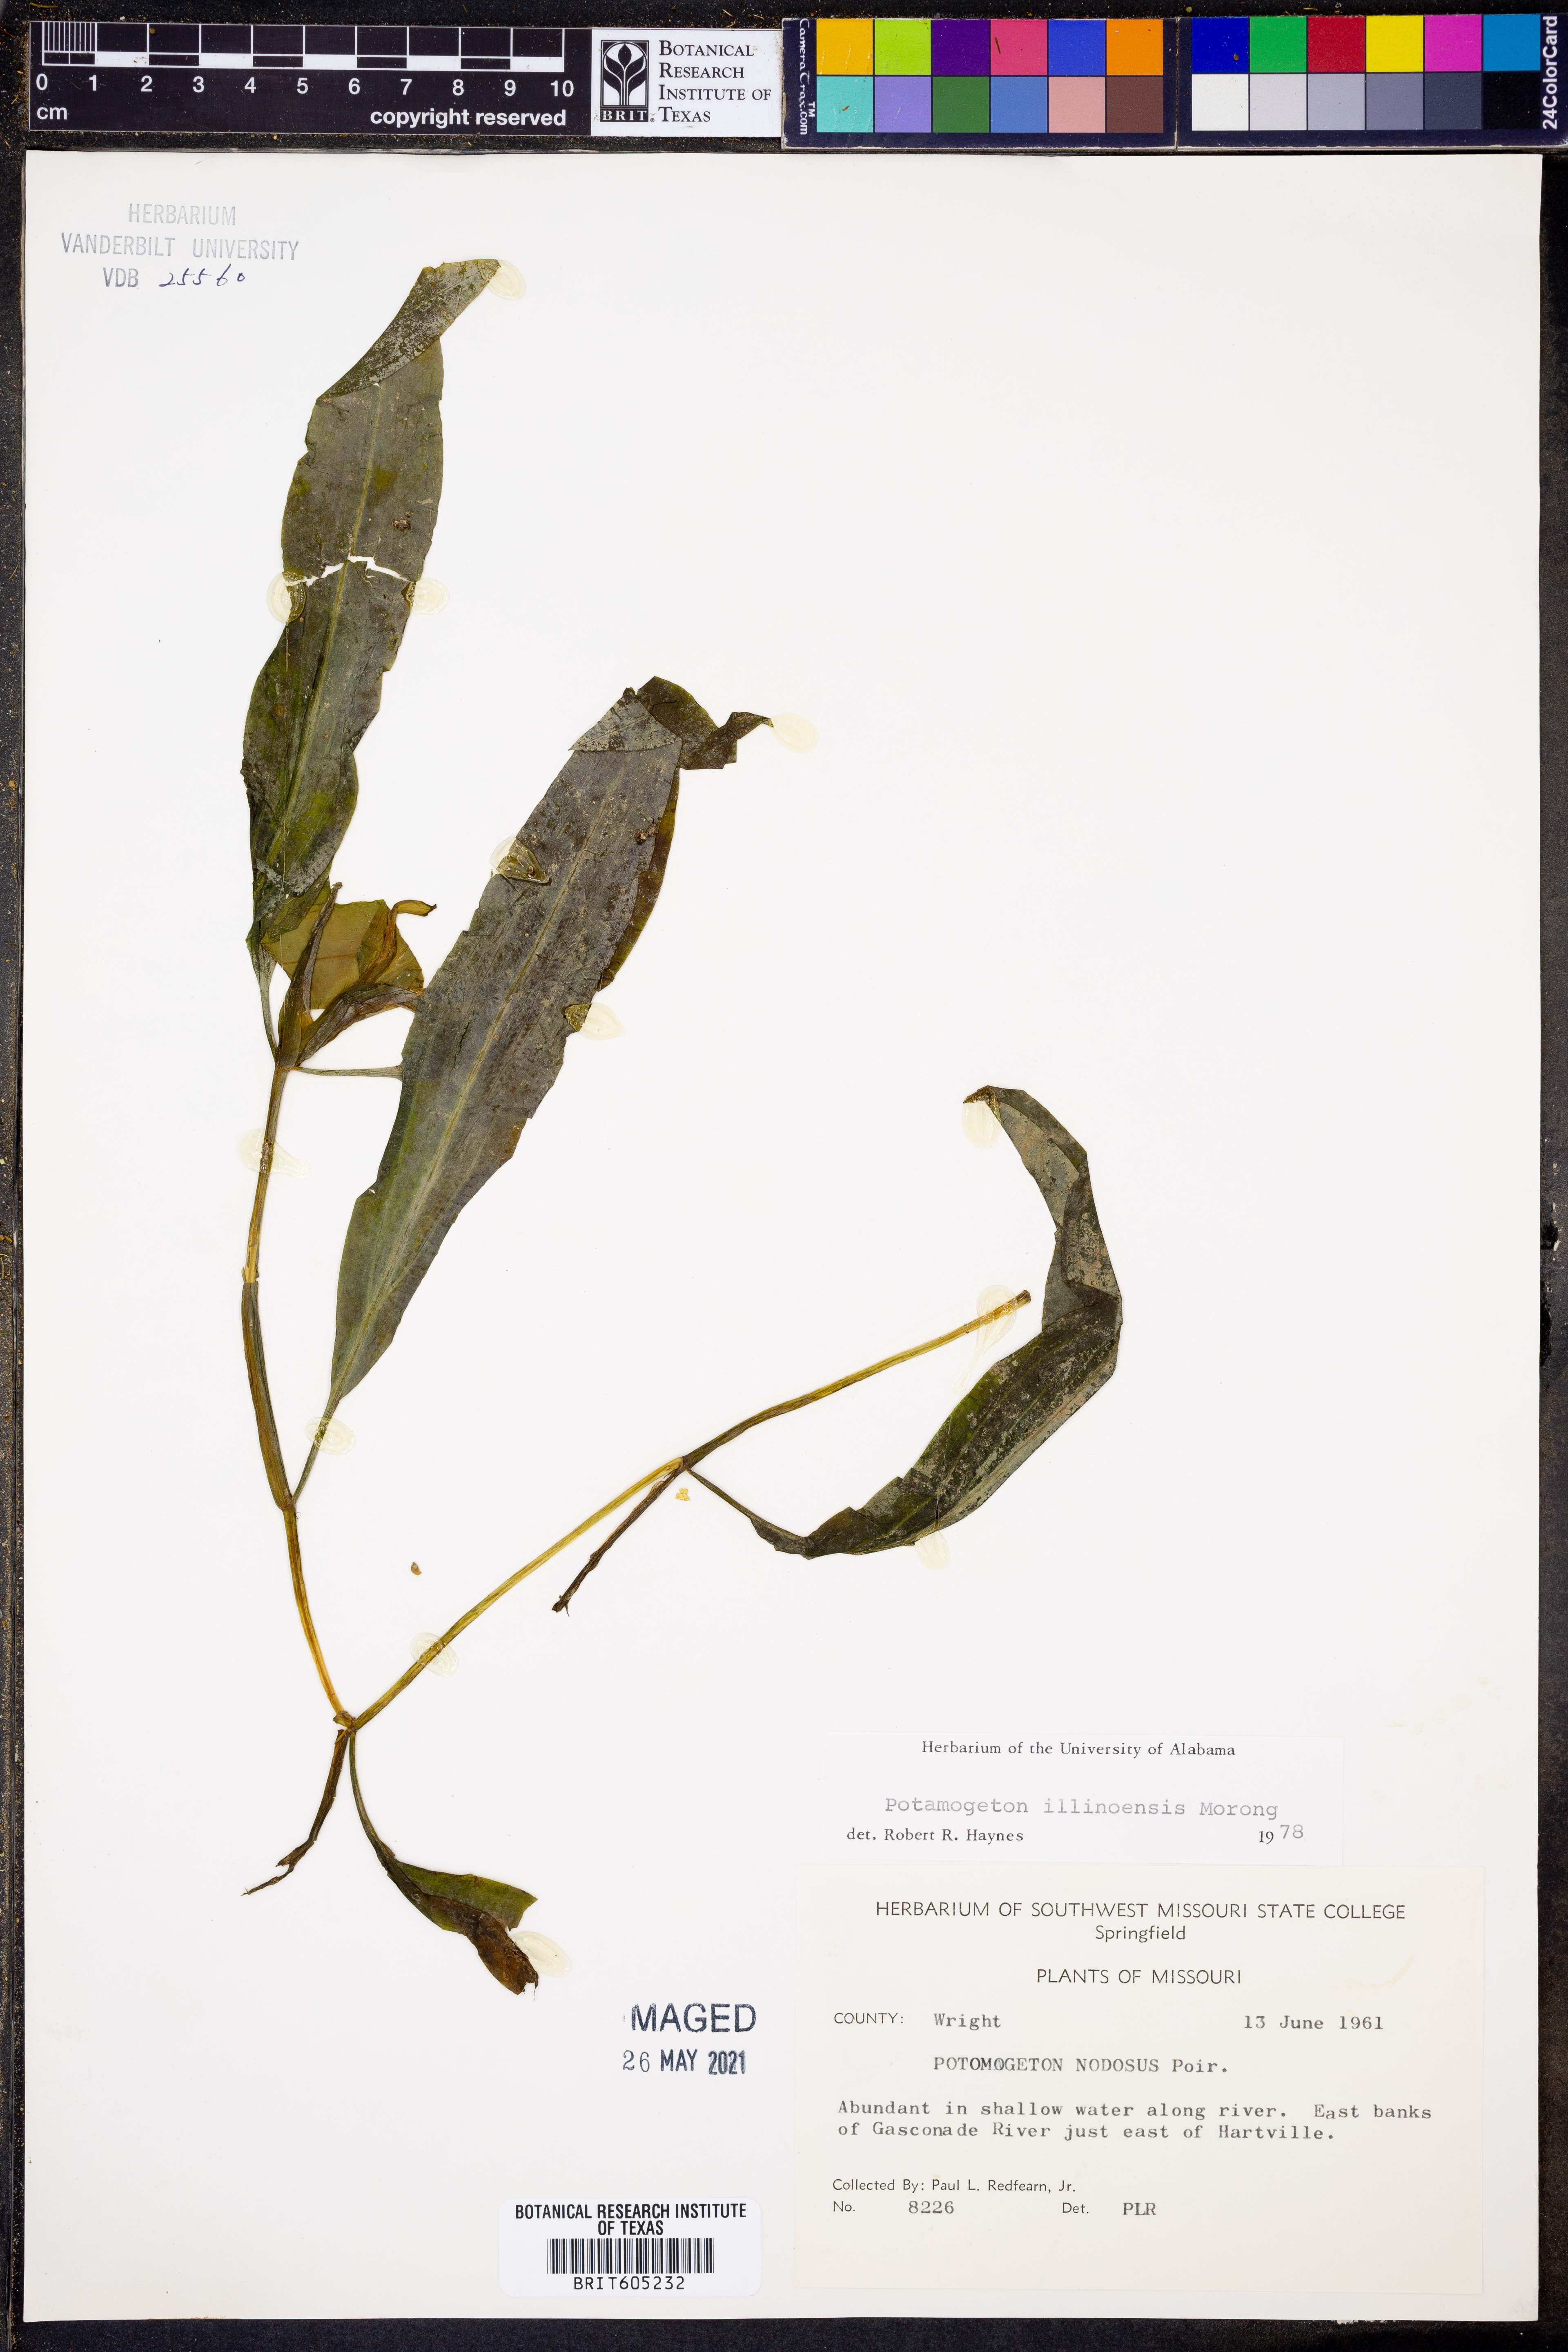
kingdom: Plantae
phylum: Tracheophyta
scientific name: Tracheophyta
